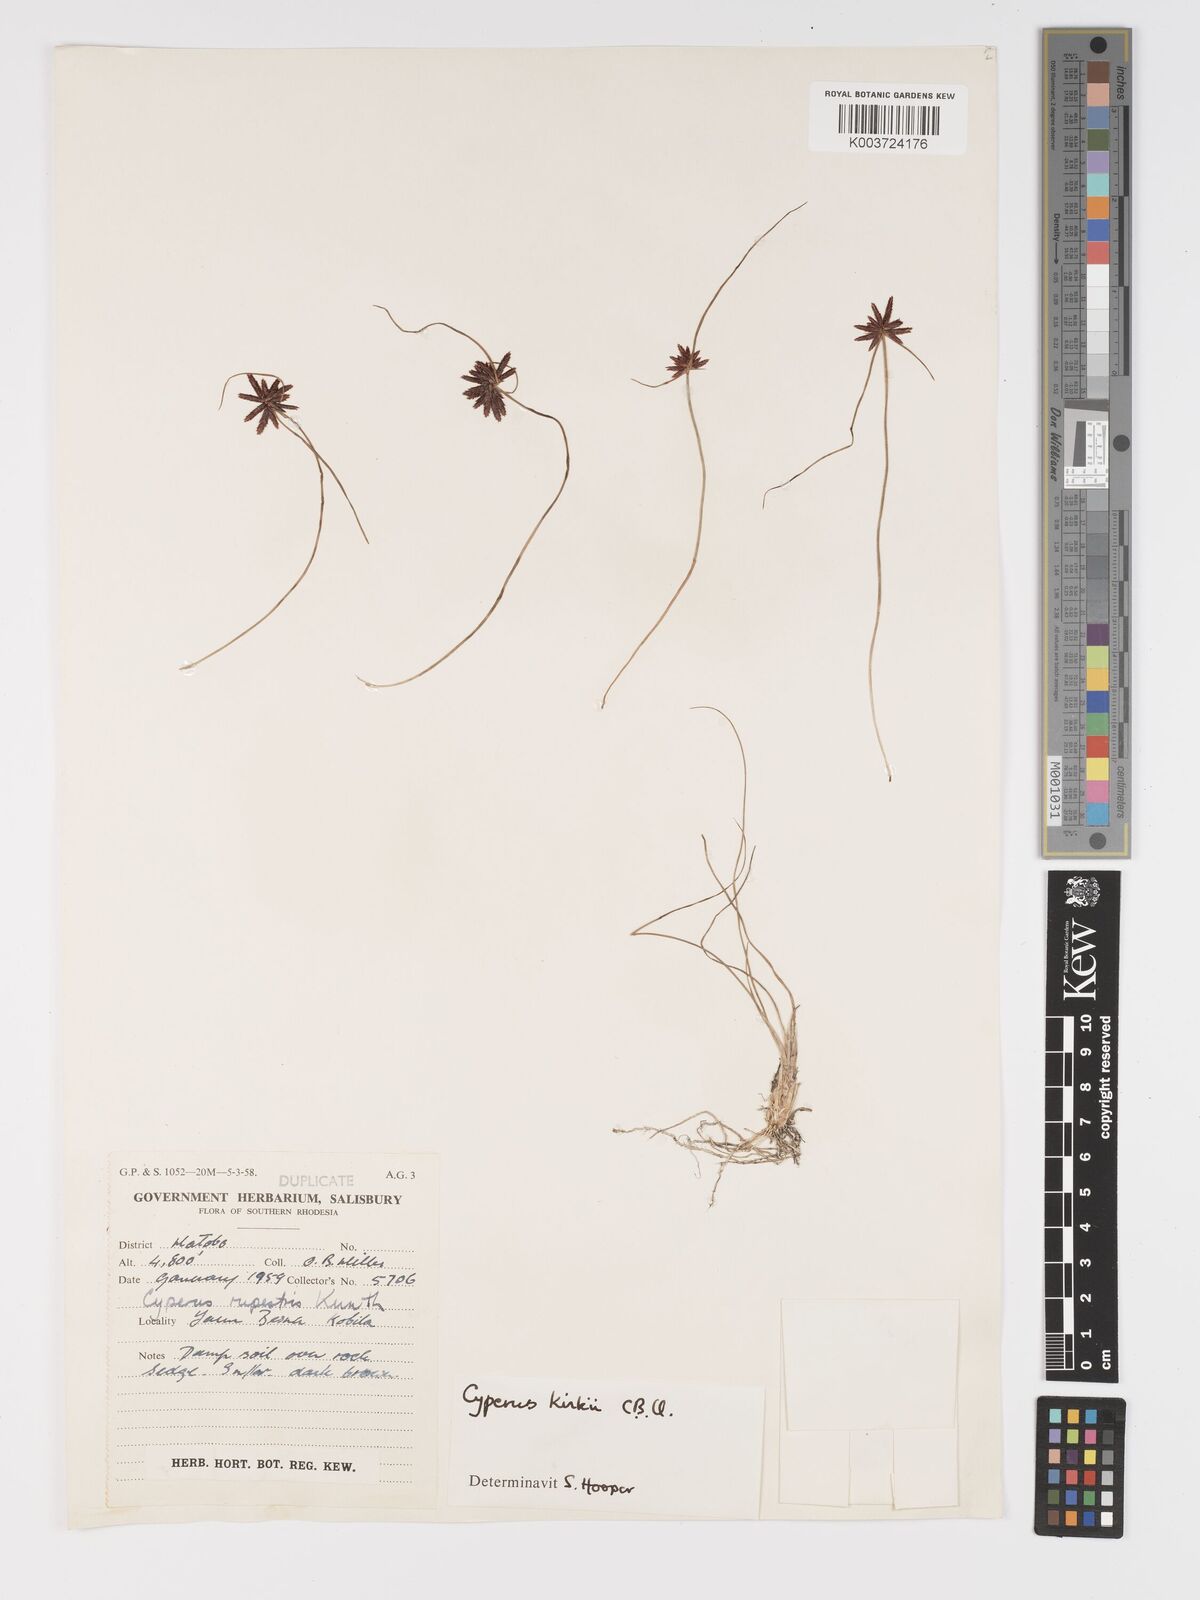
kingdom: Plantae
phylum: Tracheophyta
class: Liliopsida
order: Poales
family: Cyperaceae
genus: Cyperus
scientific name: Cyperus rupestris
